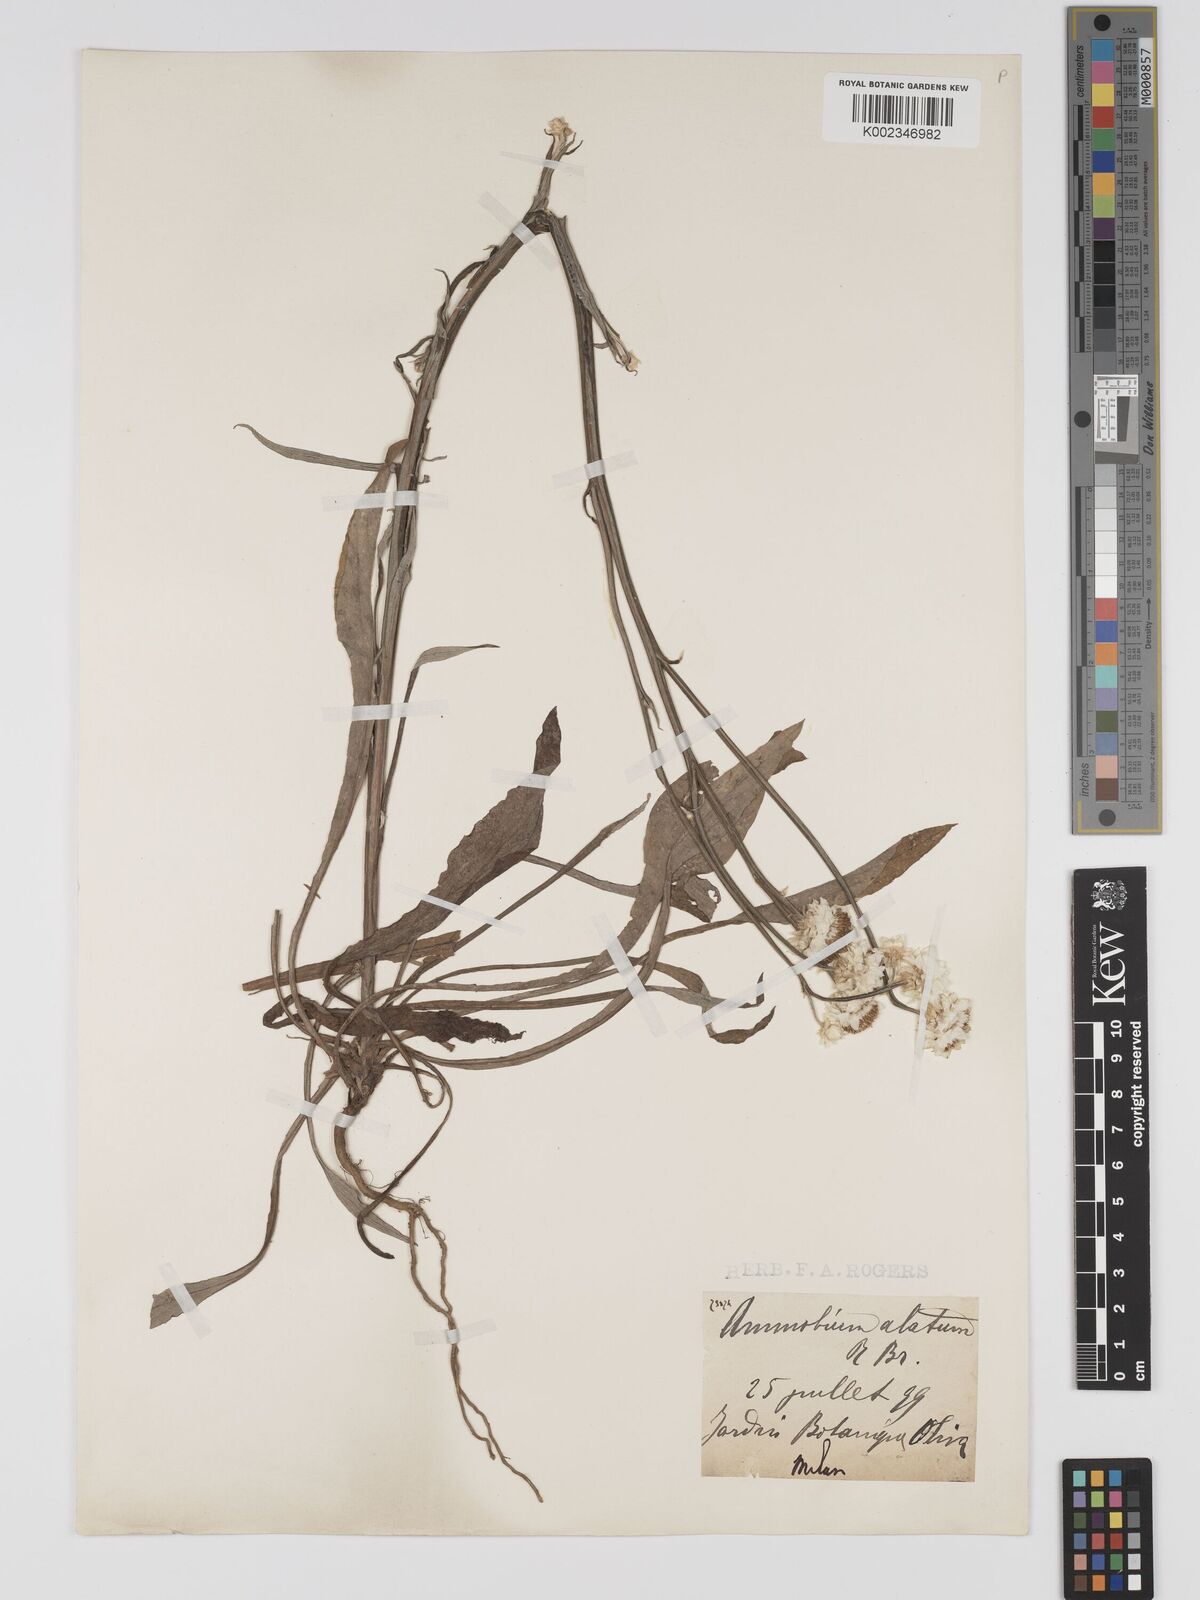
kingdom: Plantae
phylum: Tracheophyta
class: Magnoliopsida
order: Asterales
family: Asteraceae
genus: Ammobium
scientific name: Ammobium alatum
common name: Winged everlasting
